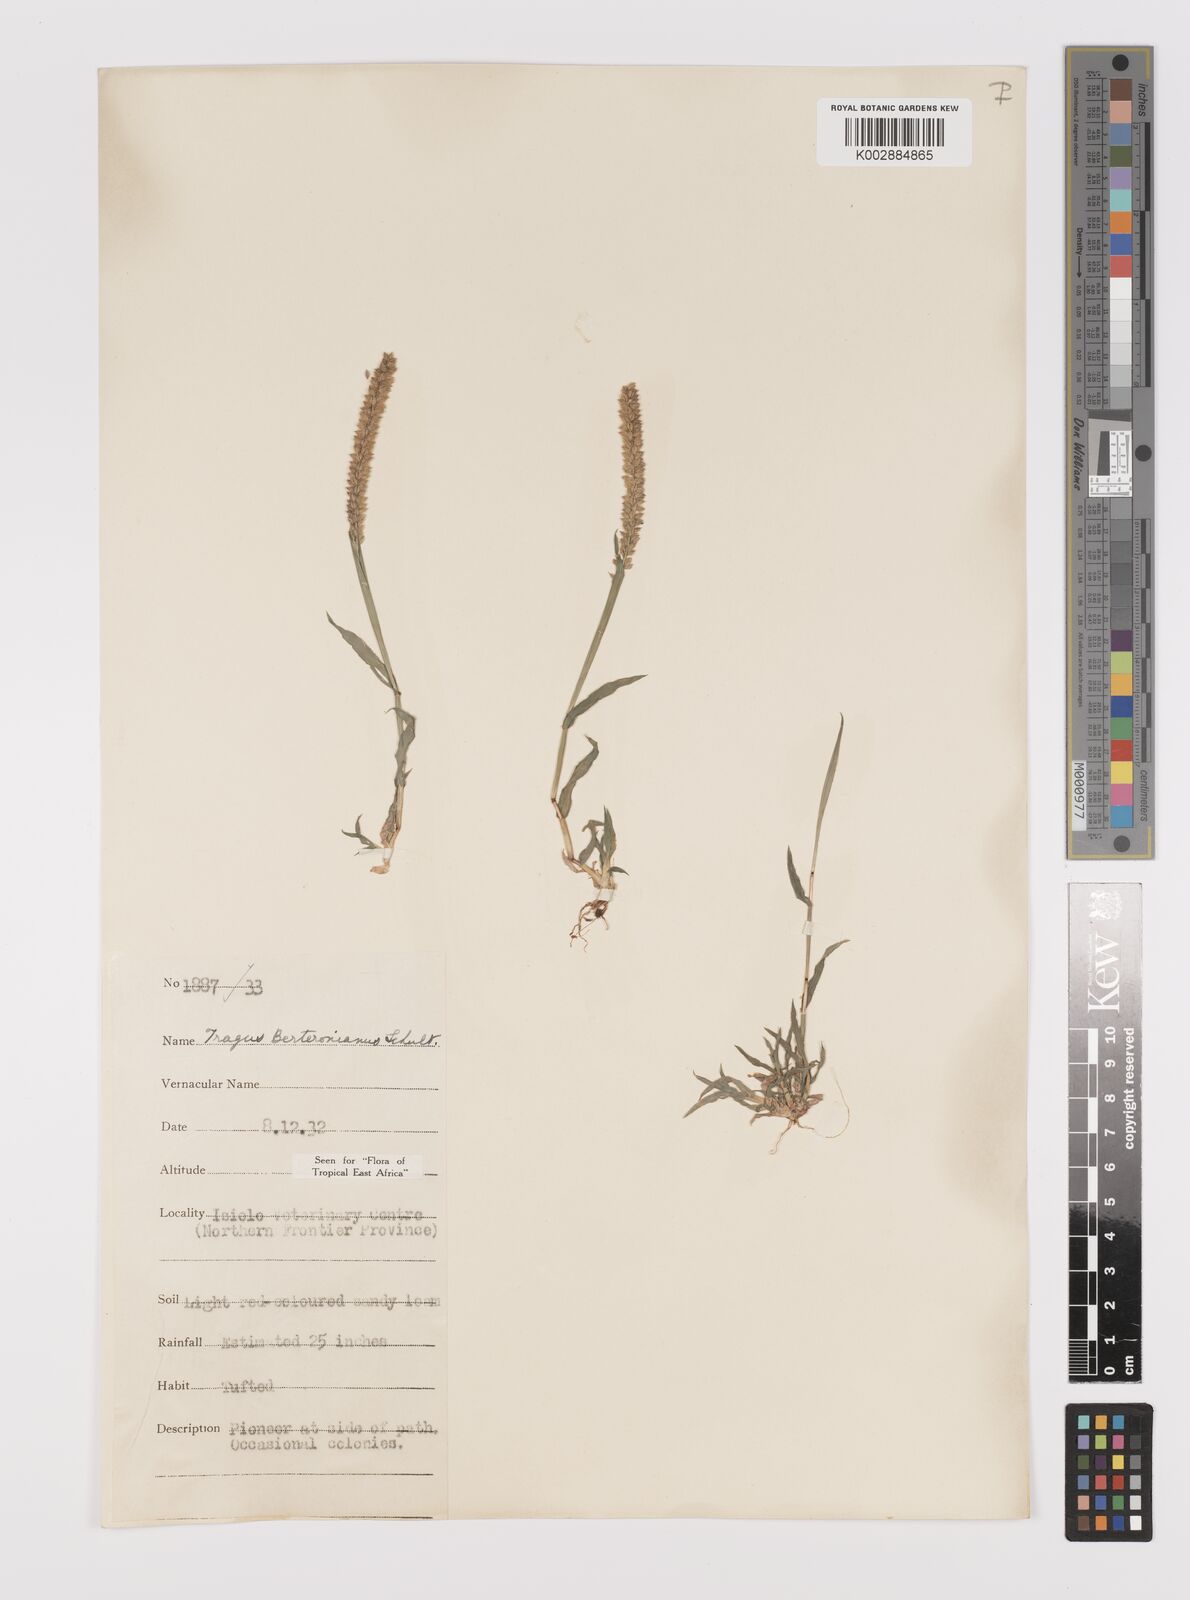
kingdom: Plantae
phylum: Tracheophyta
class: Liliopsida
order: Poales
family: Poaceae
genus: Tragus
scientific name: Tragus berteronianus
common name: African bur-grass
